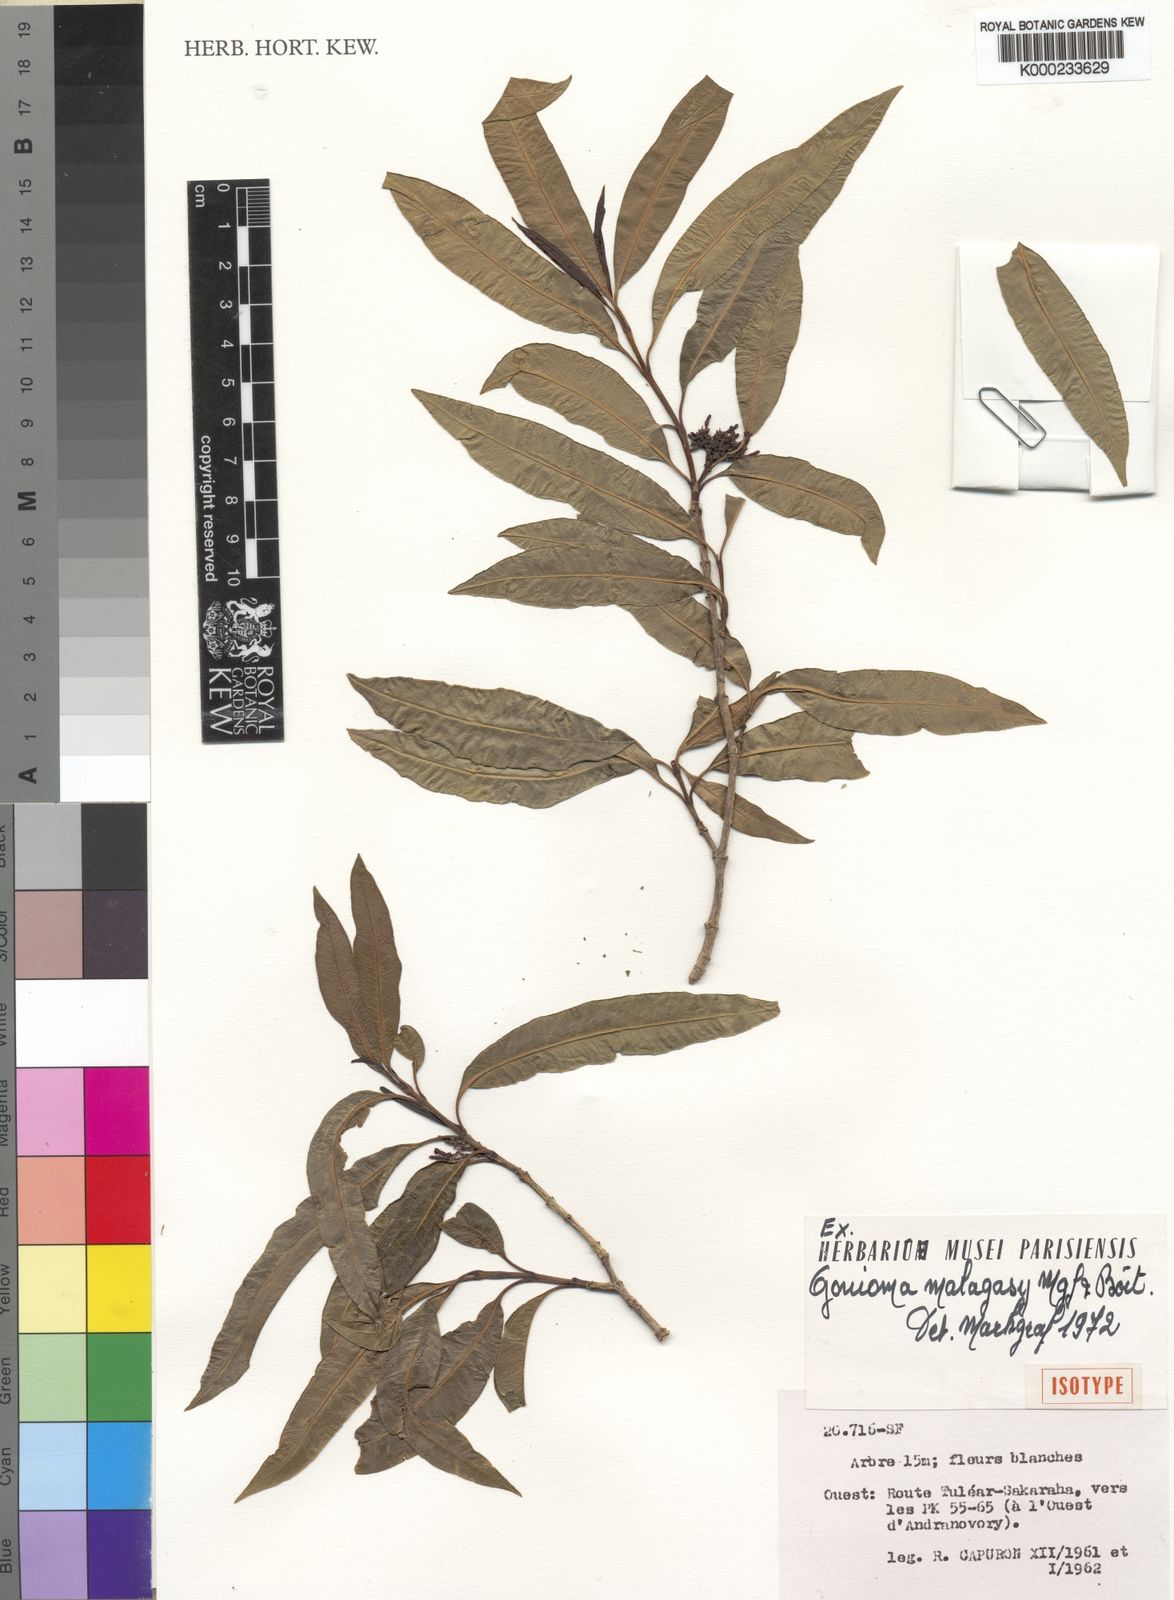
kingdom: Plantae
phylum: Tracheophyta
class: Magnoliopsida
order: Gentianales
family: Apocynaceae
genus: Gonioma
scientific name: Gonioma malagasy
